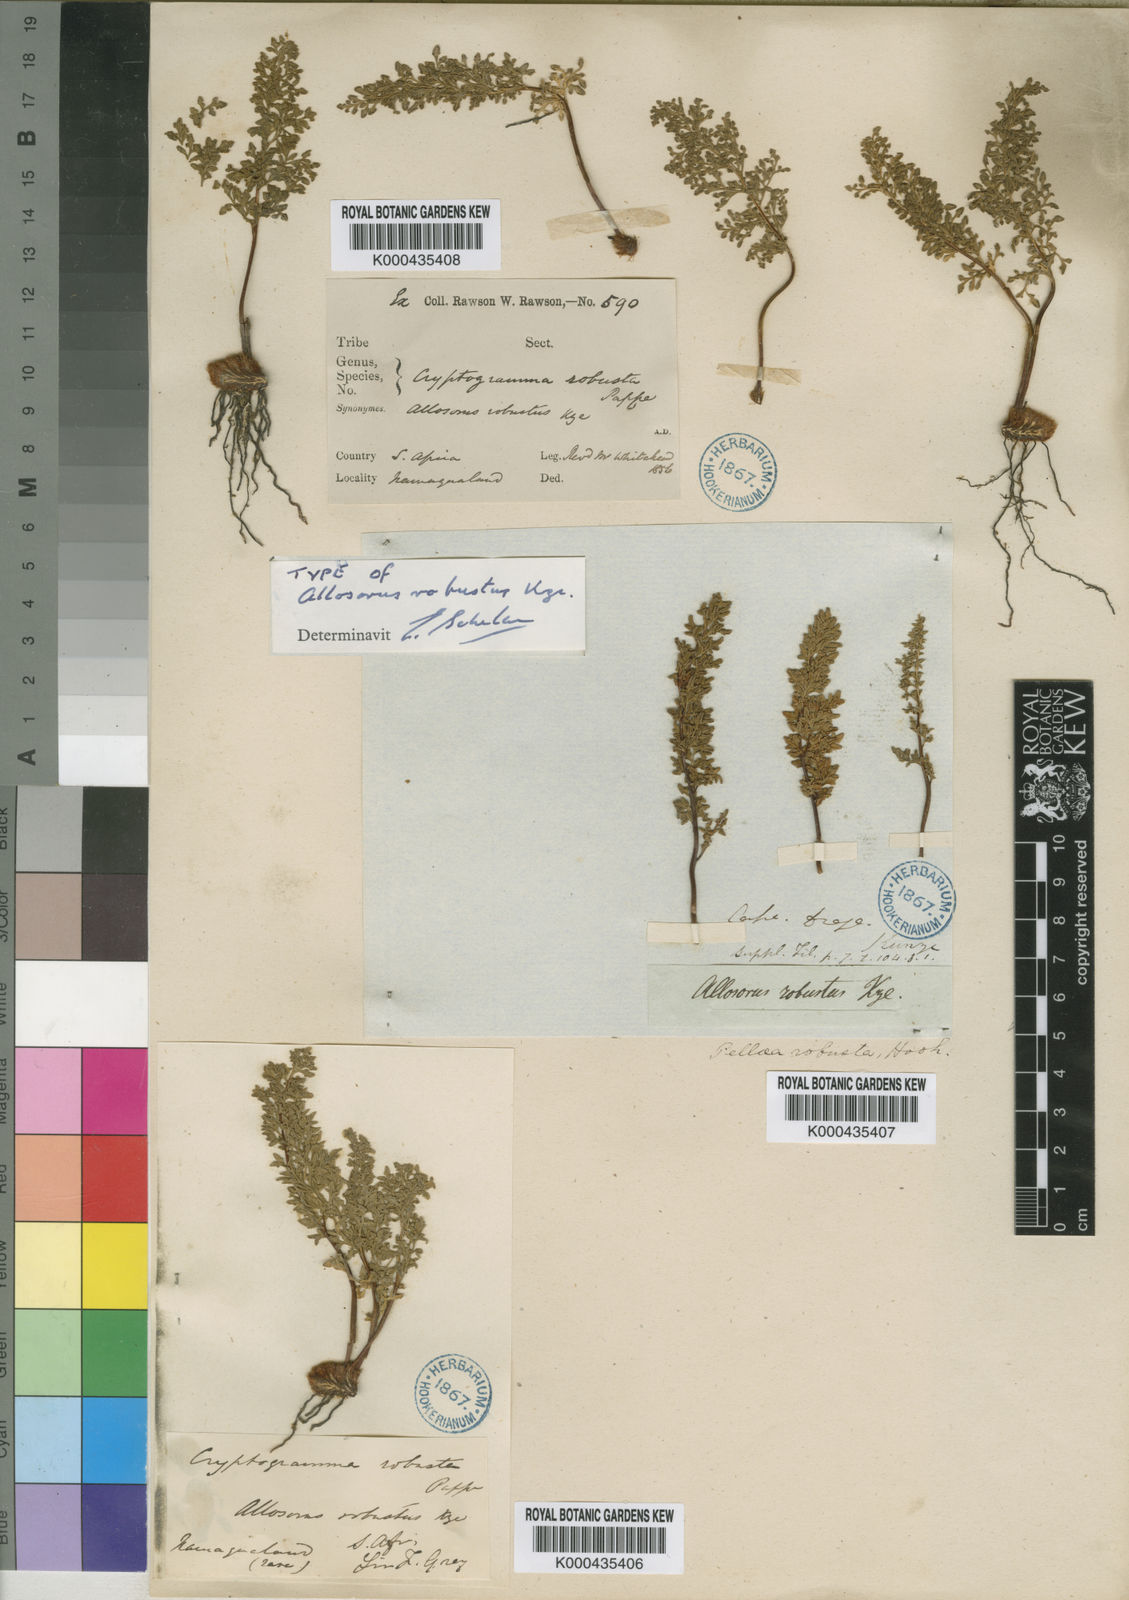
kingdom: Plantae
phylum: Tracheophyta
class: Polypodiopsida
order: Polypodiales
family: Pteridaceae
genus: Cheilanthes
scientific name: Cheilanthes robusta
